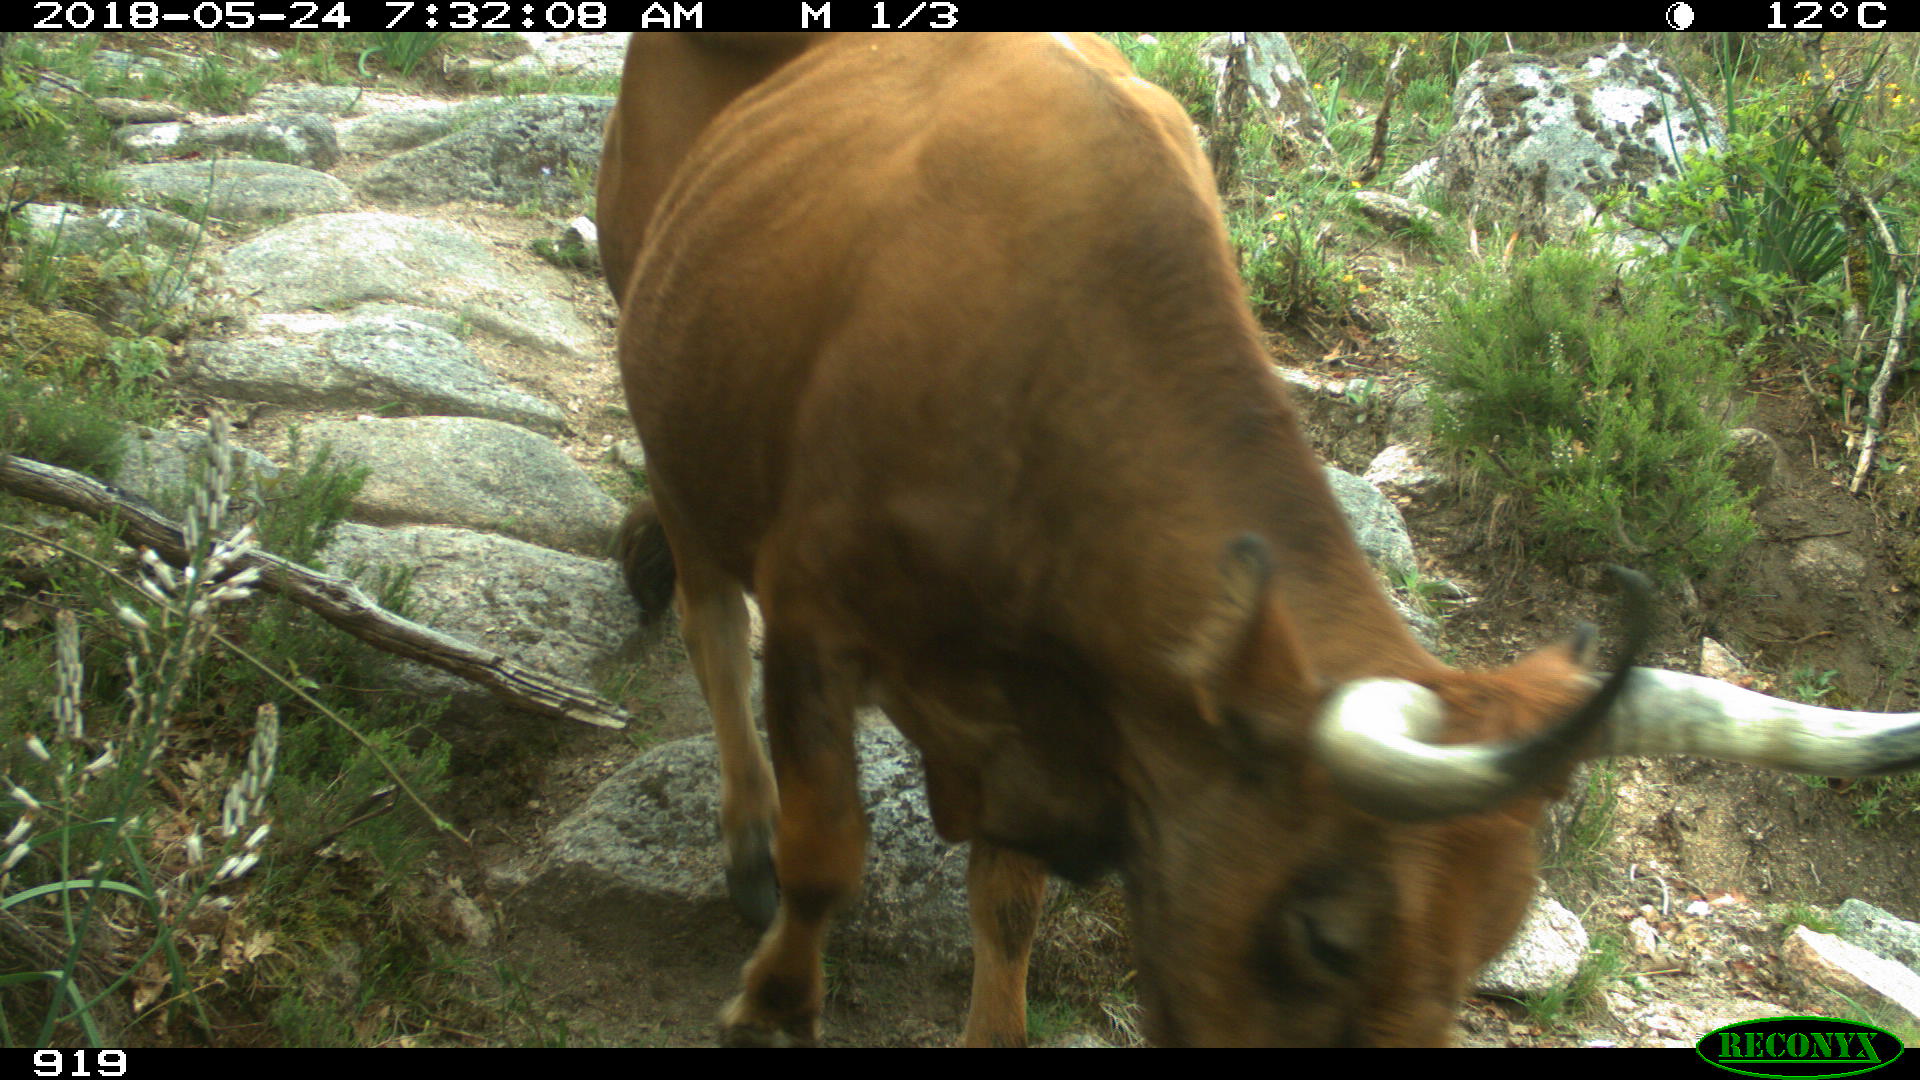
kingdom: Animalia
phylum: Chordata
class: Mammalia
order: Artiodactyla
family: Bovidae
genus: Bos
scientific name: Bos taurus
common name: Domesticated cattle
